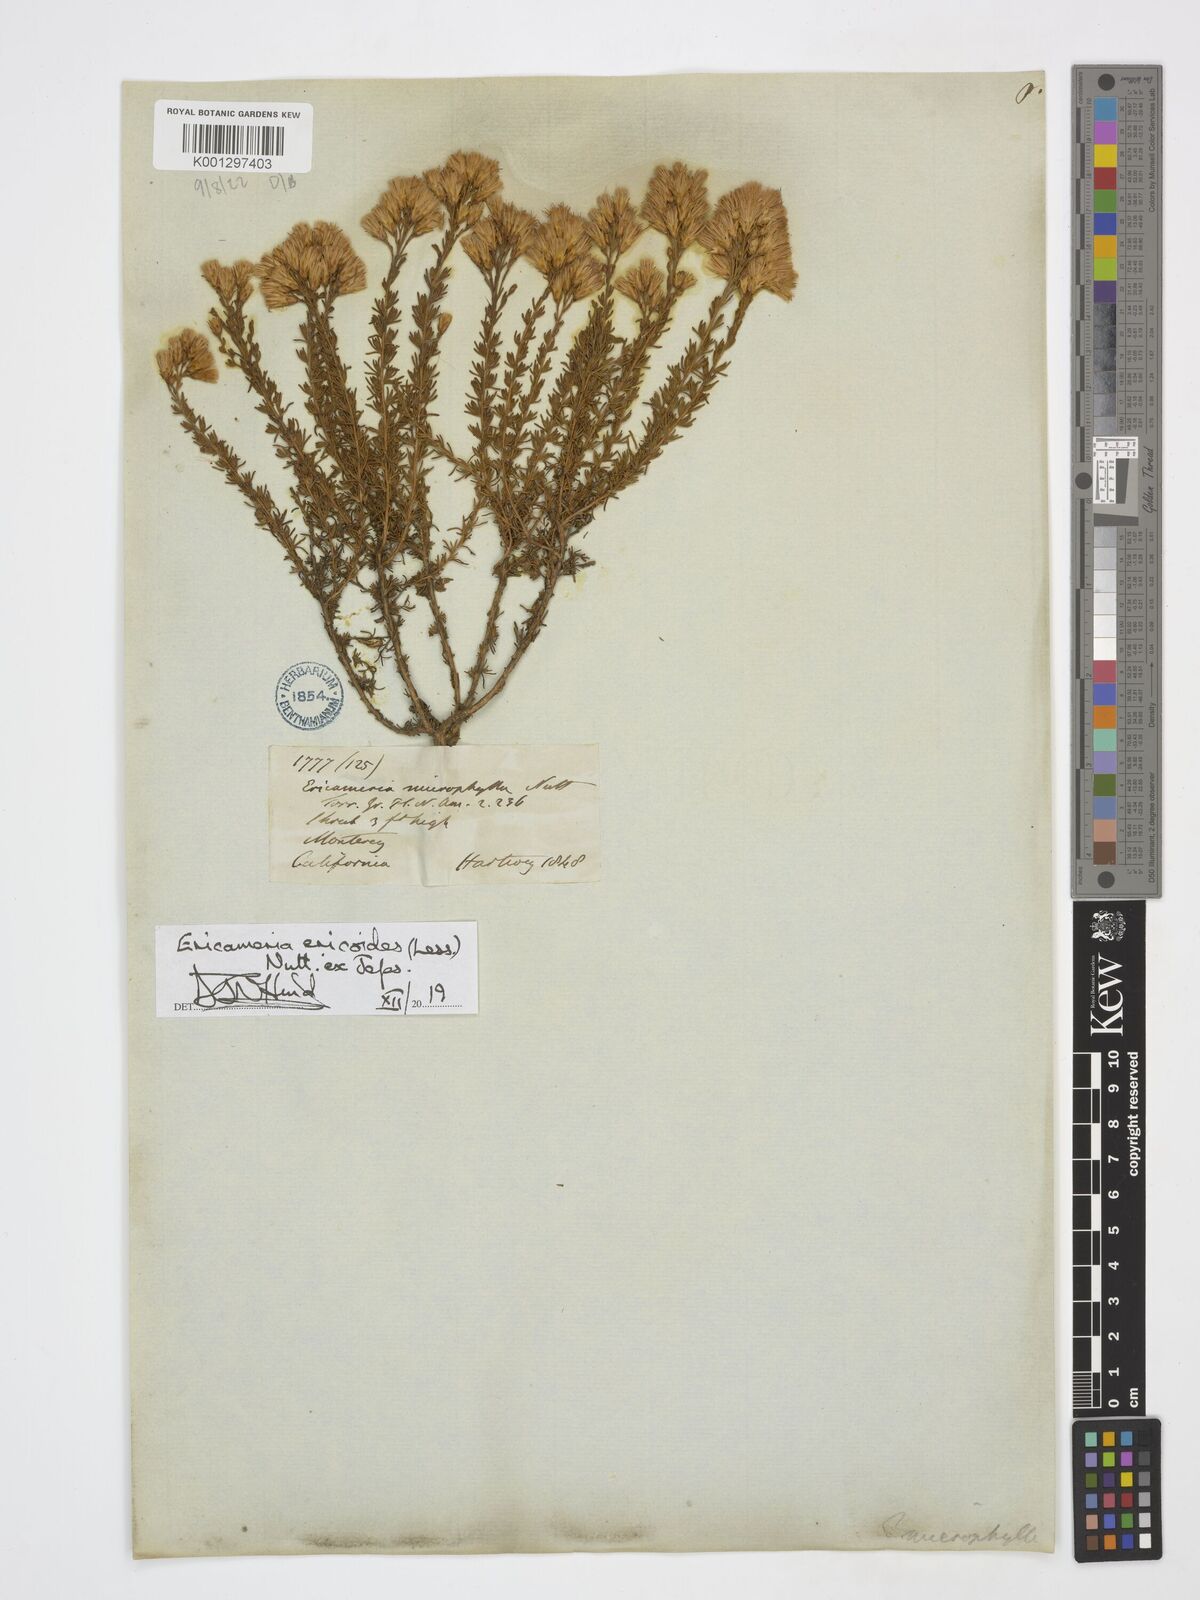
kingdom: Plantae
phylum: Tracheophyta
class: Magnoliopsida
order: Asterales
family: Asteraceae
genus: Ericameria
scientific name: Ericameria ericoides
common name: California goldenbush
